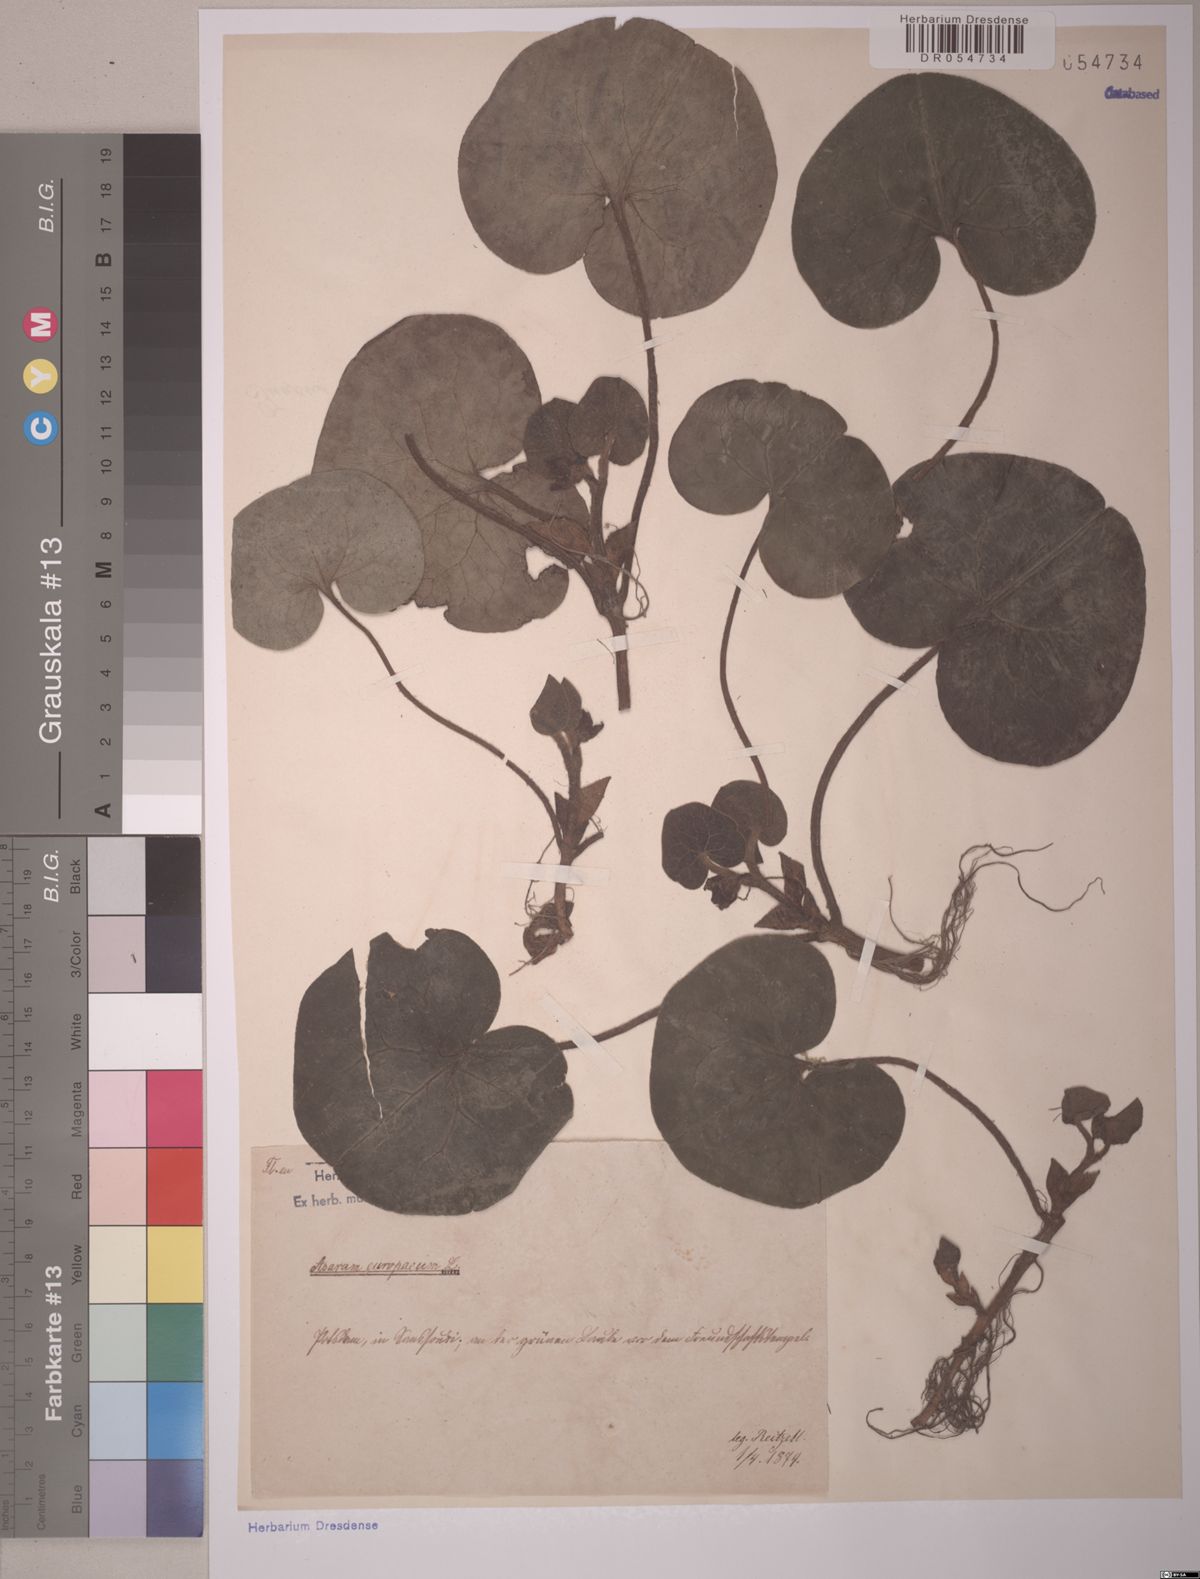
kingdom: Plantae
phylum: Tracheophyta
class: Magnoliopsida
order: Piperales
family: Aristolochiaceae
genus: Asarum
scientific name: Asarum europaeum
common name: Asarabacca
